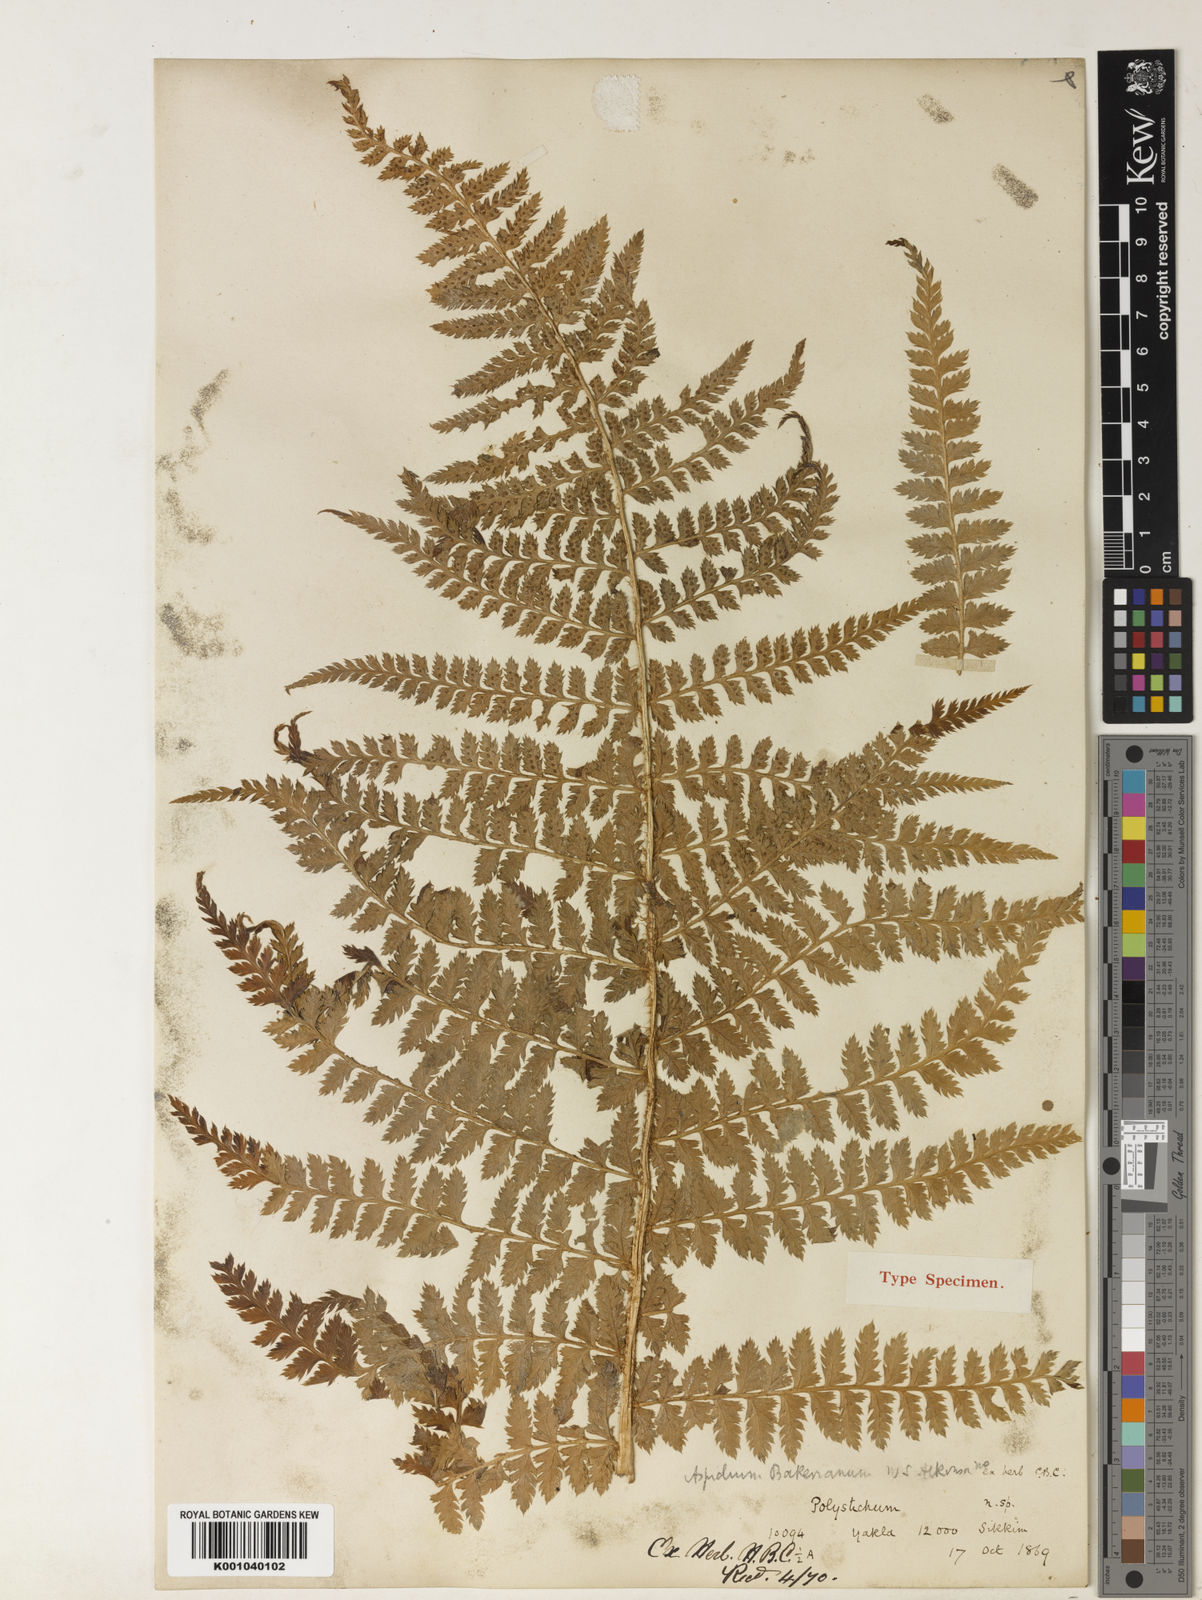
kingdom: Plantae
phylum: Tracheophyta
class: Polypodiopsida
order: Polypodiales
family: Dryopteridaceae
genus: Polystichum
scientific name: Polystichum bakerianum
